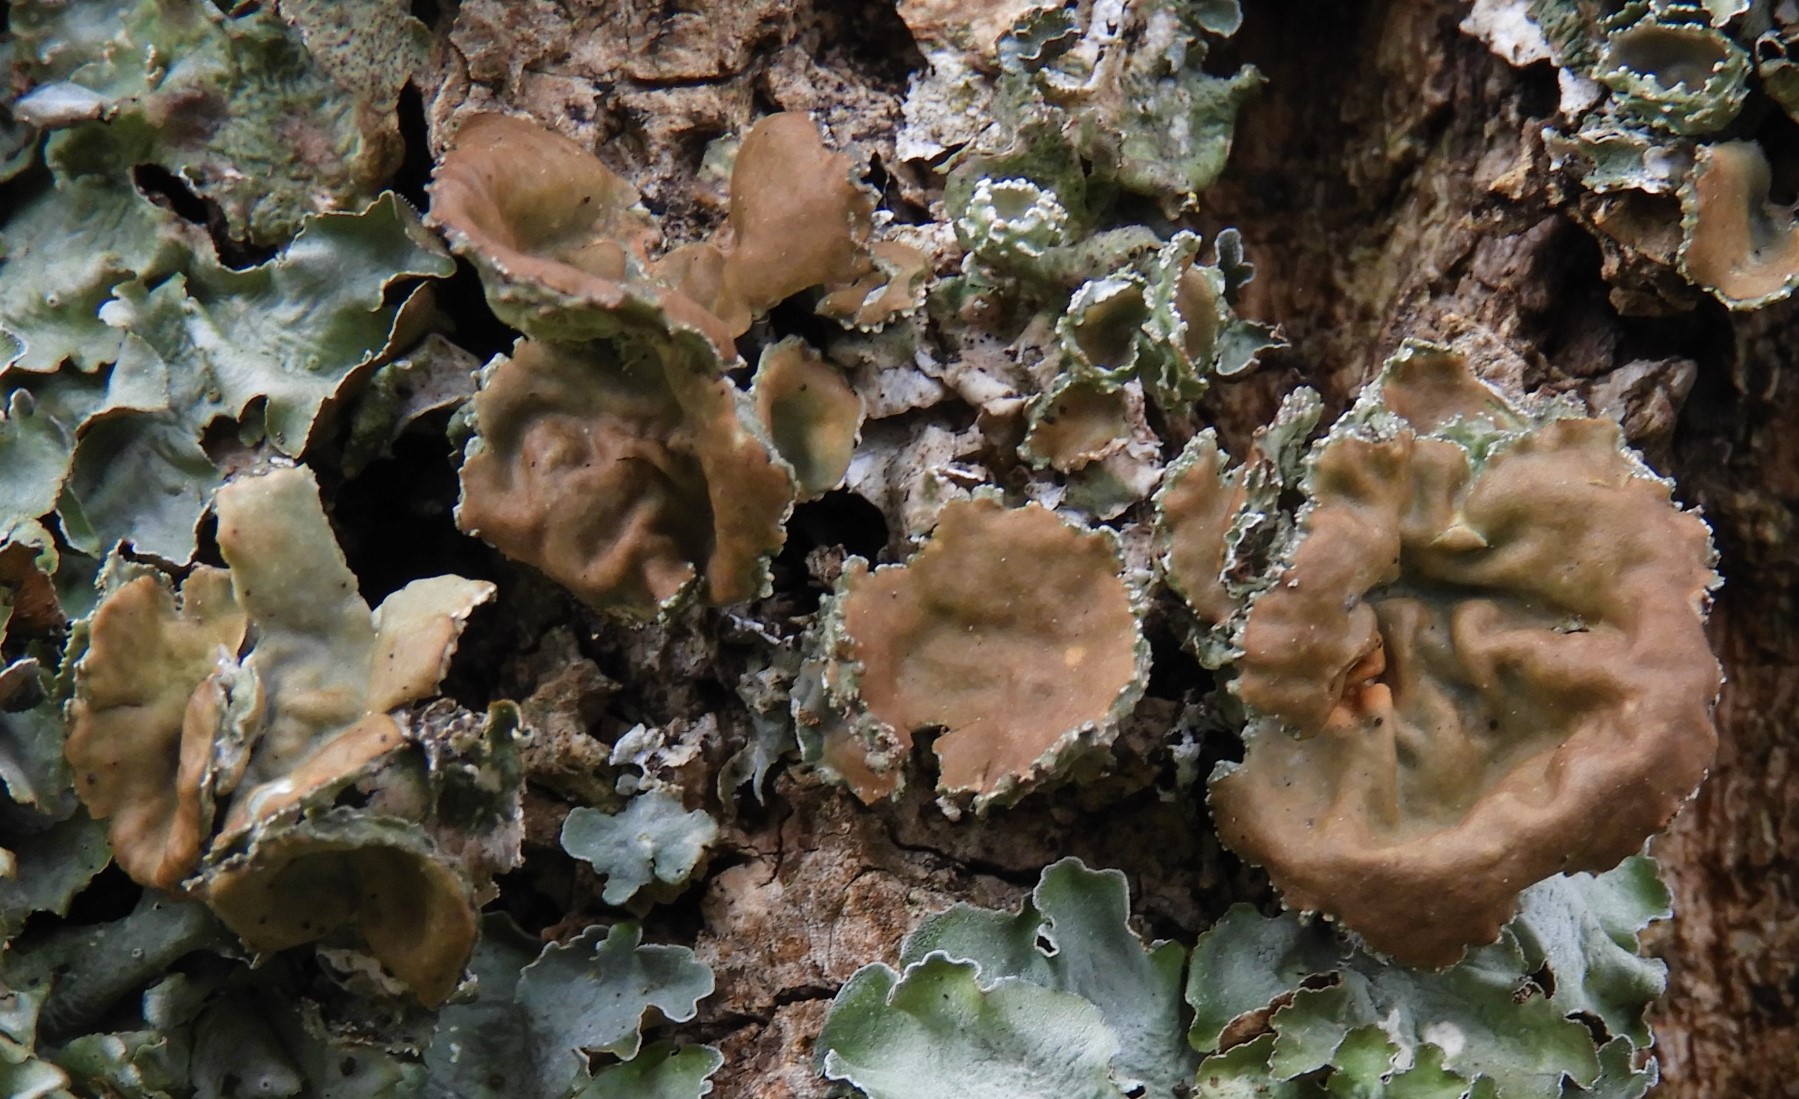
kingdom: Fungi
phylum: Ascomycota
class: Lecanoromycetes
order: Lecanorales
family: Parmeliaceae
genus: Pleurosticta
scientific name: Pleurosticta acetabulum
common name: stor skållav
